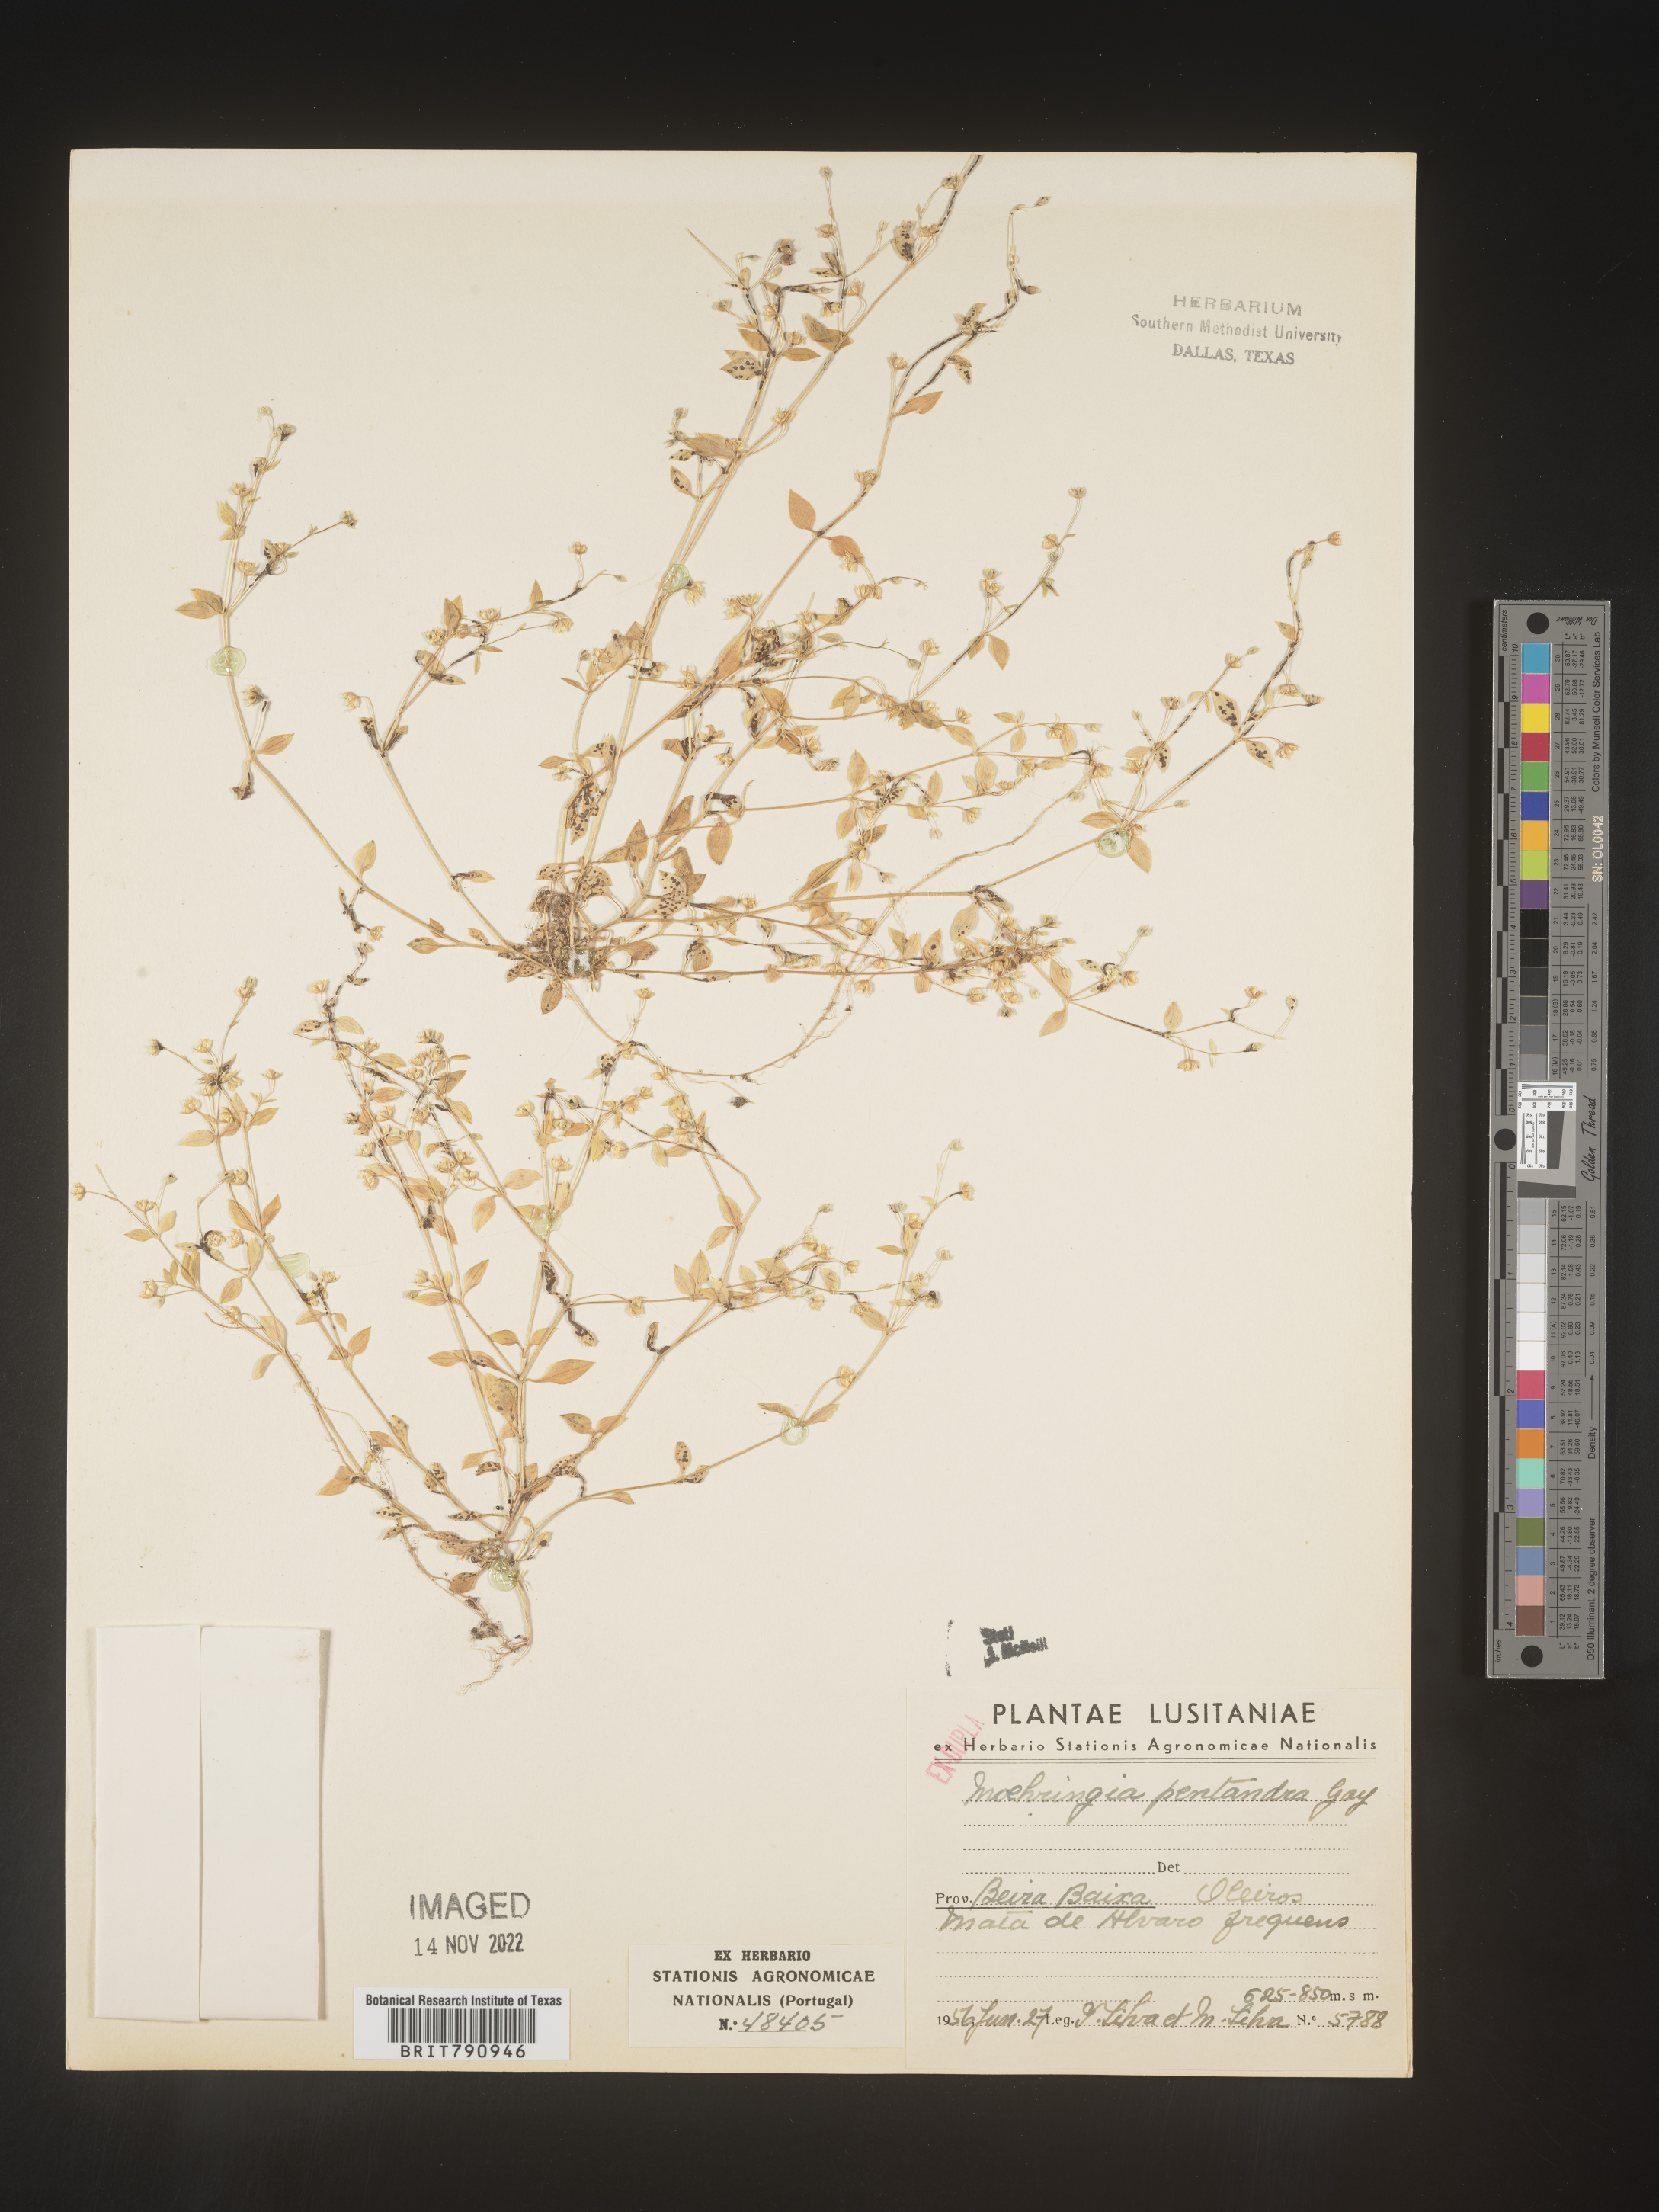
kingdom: Plantae
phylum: Tracheophyta
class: Magnoliopsida
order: Caryophyllales
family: Caryophyllaceae
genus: Moehringia
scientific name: Moehringia
